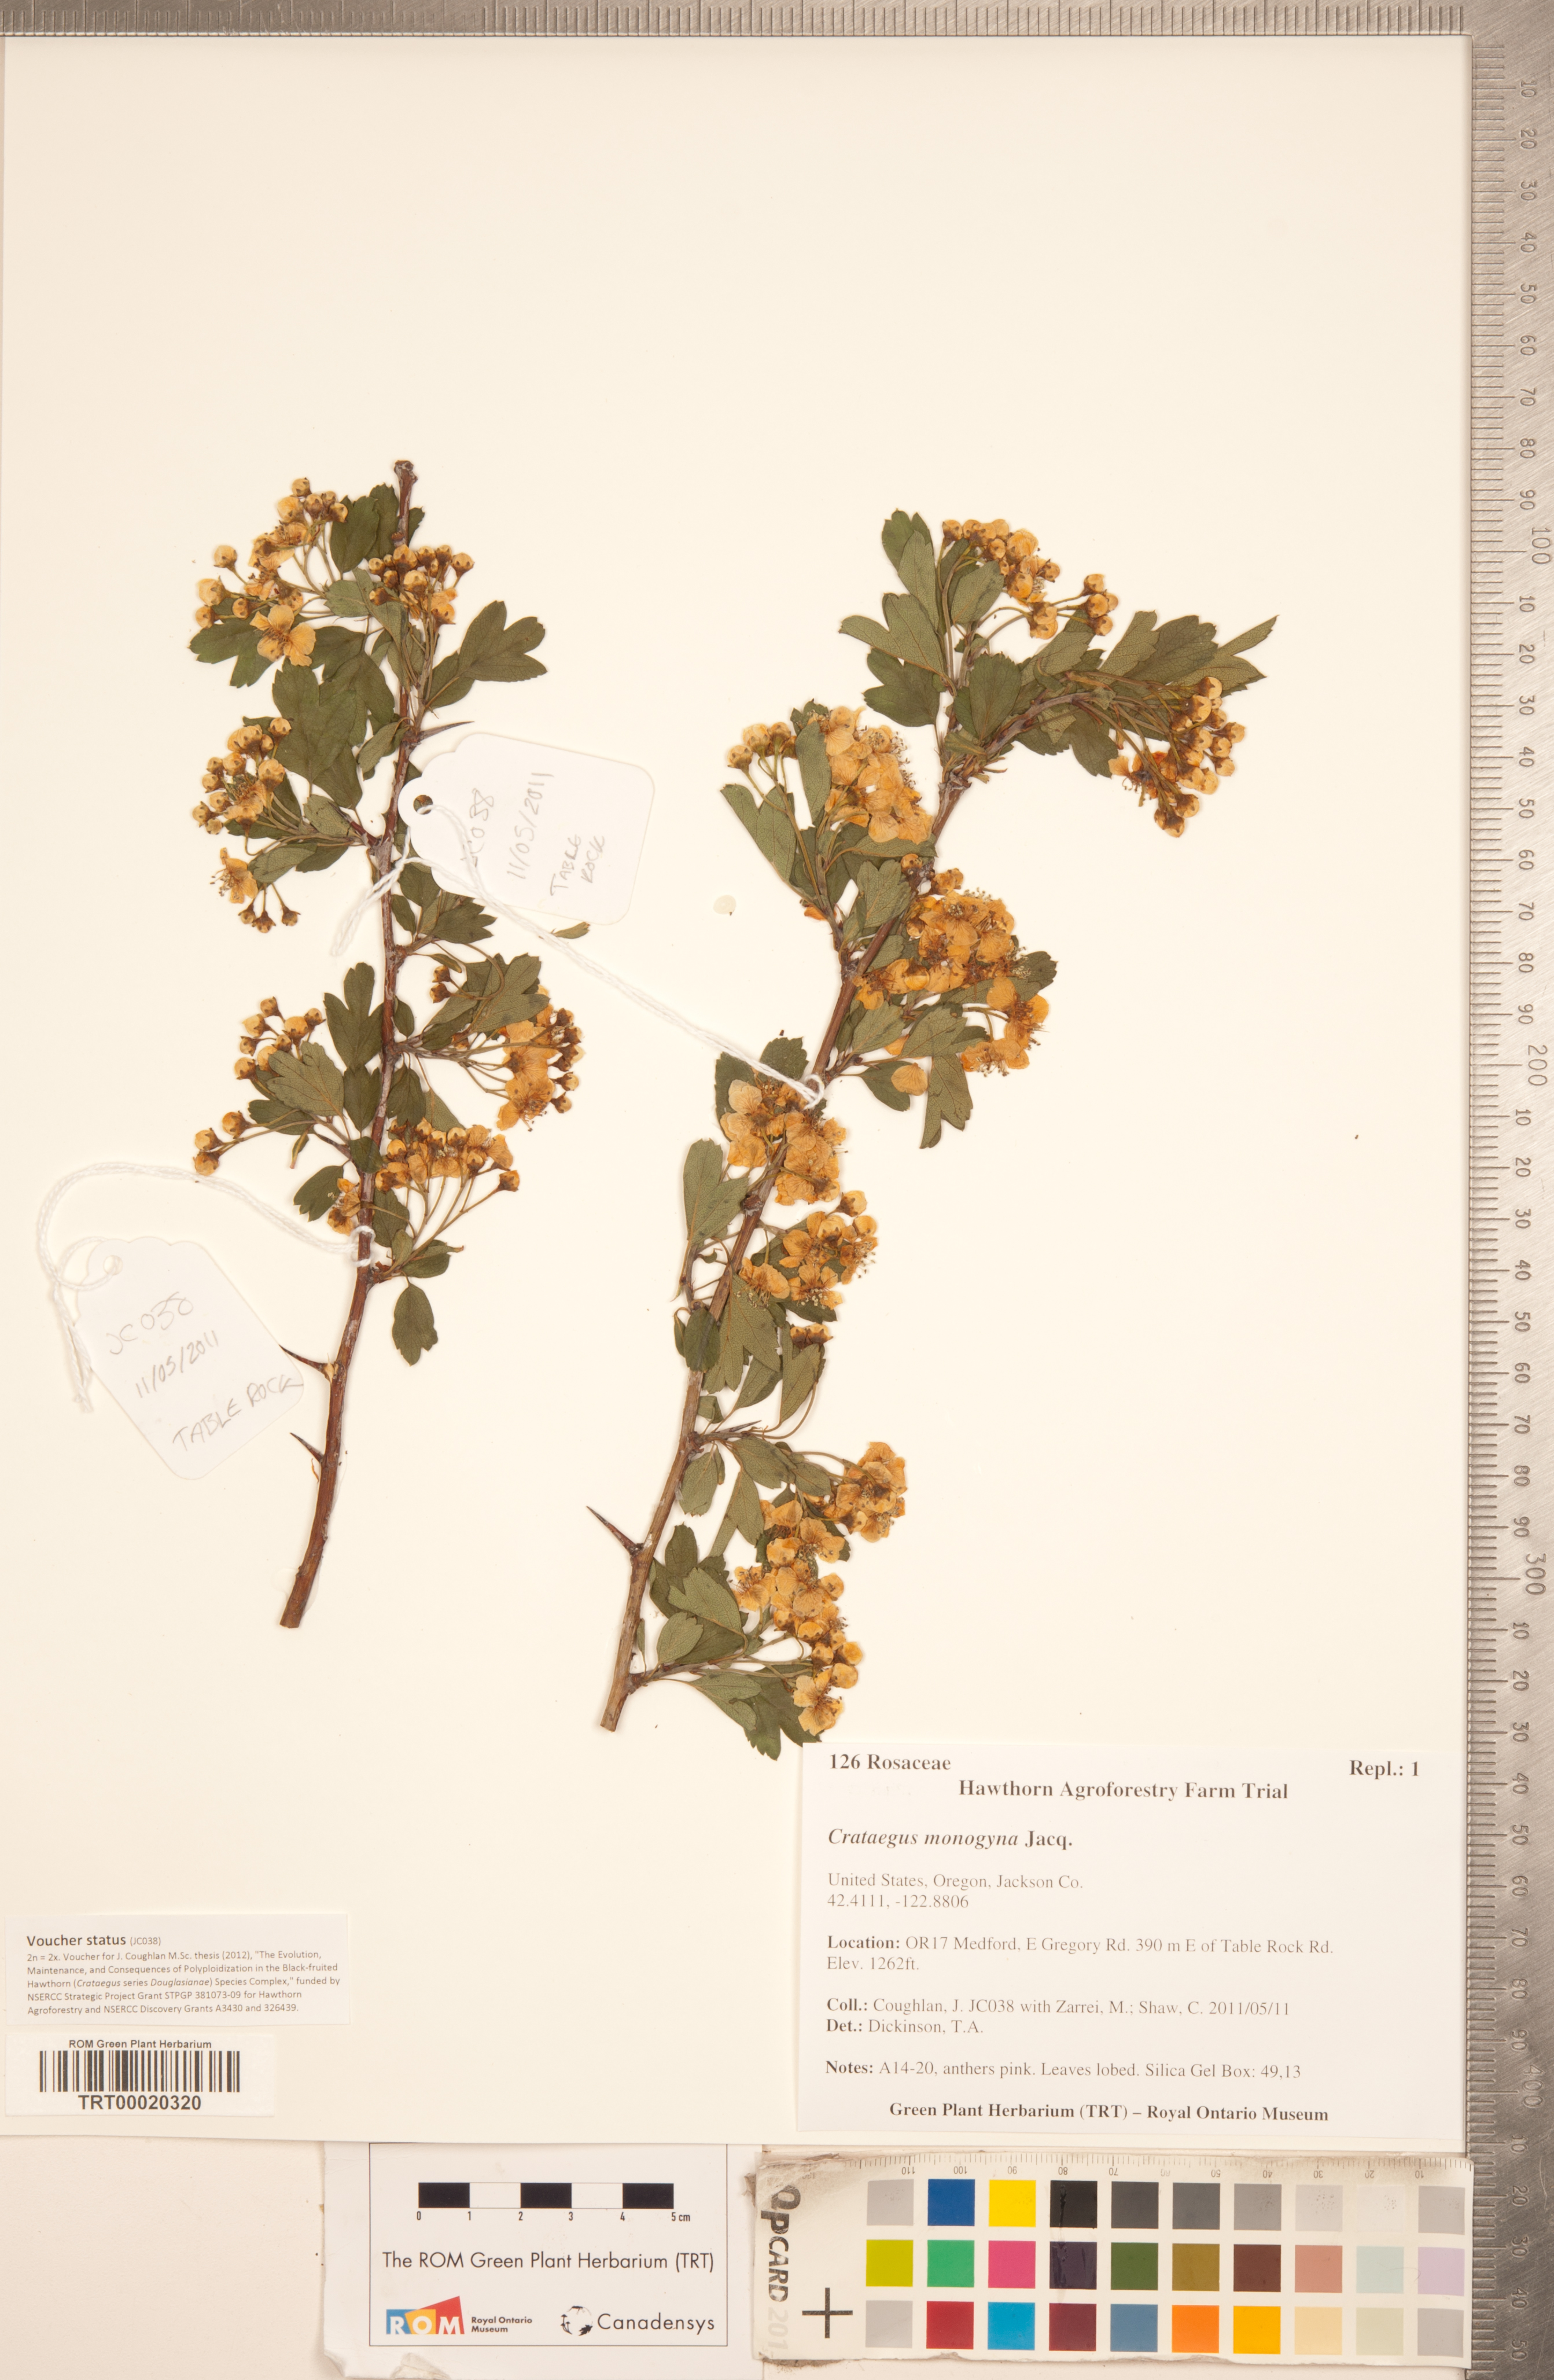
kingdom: Plantae
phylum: Tracheophyta
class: Magnoliopsida
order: Rosales
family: Rosaceae
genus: Crataegus
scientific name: Crataegus monogyna
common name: Hawthorn
